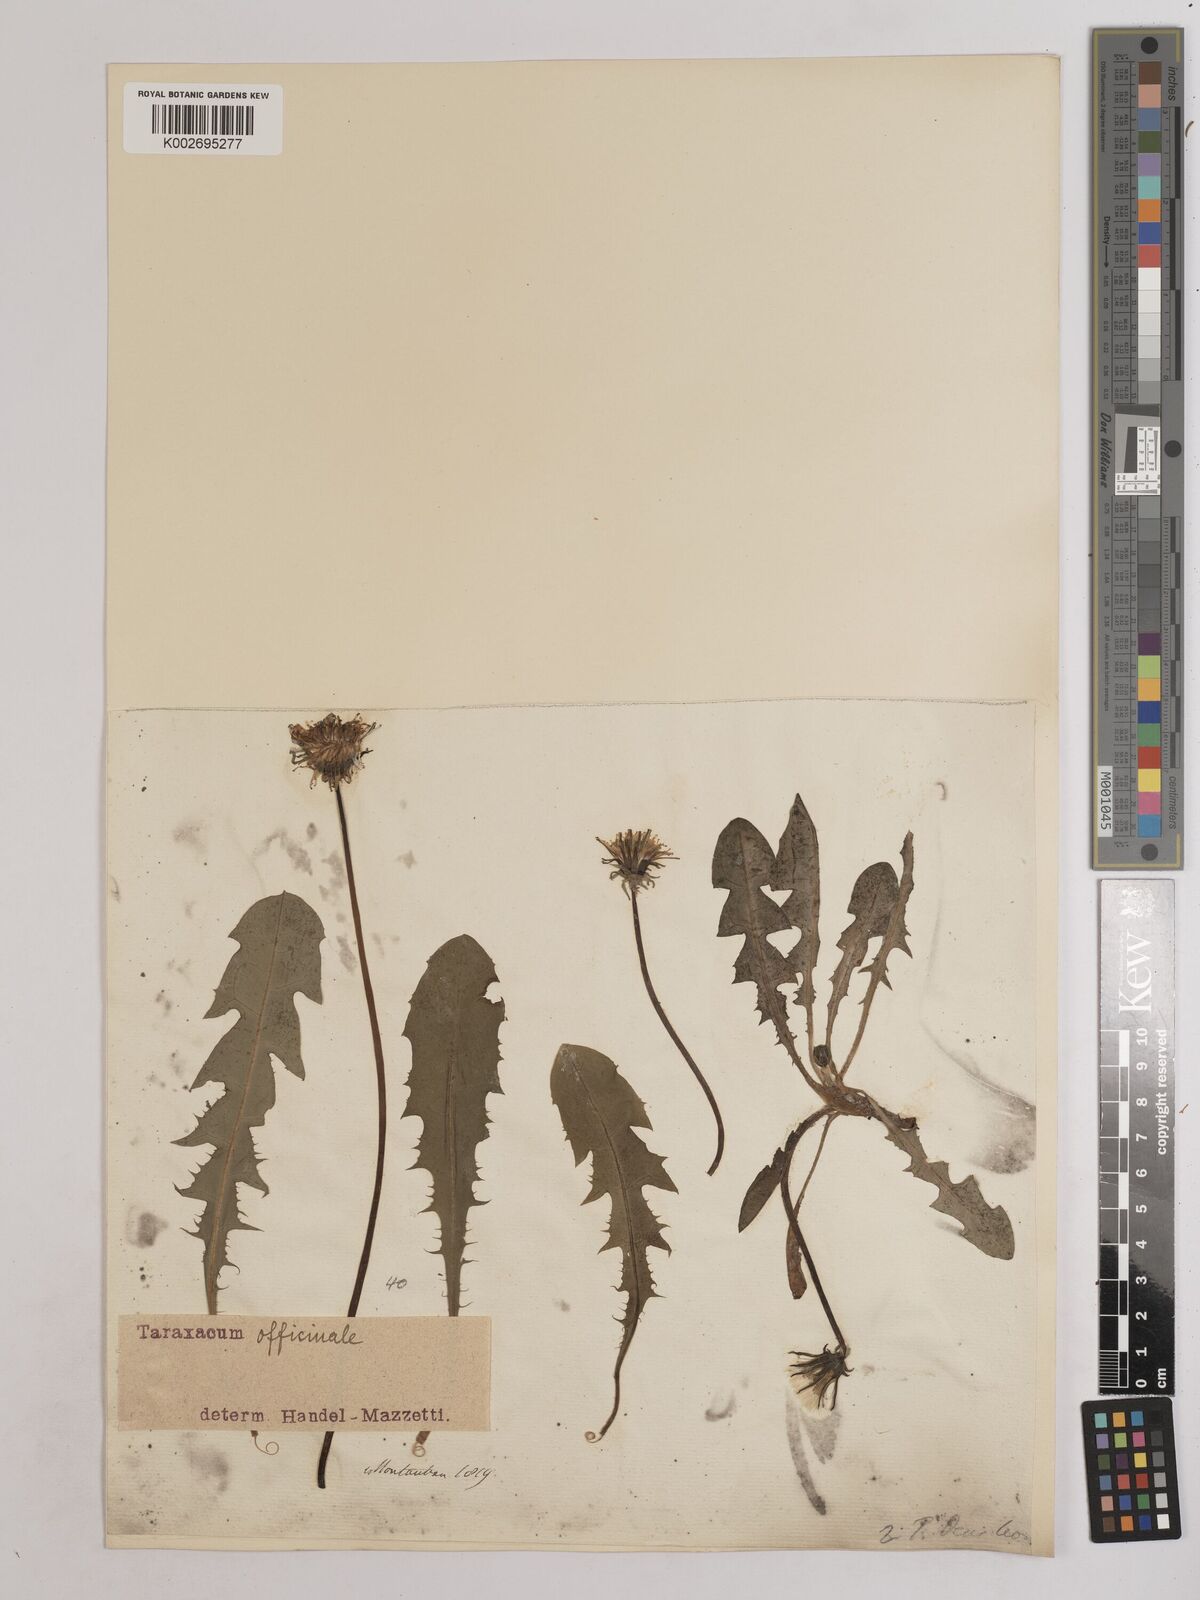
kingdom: Plantae
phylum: Tracheophyta
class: Magnoliopsida
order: Asterales
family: Asteraceae
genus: Taraxacum
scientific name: Taraxacum officinale
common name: Common dandelion
